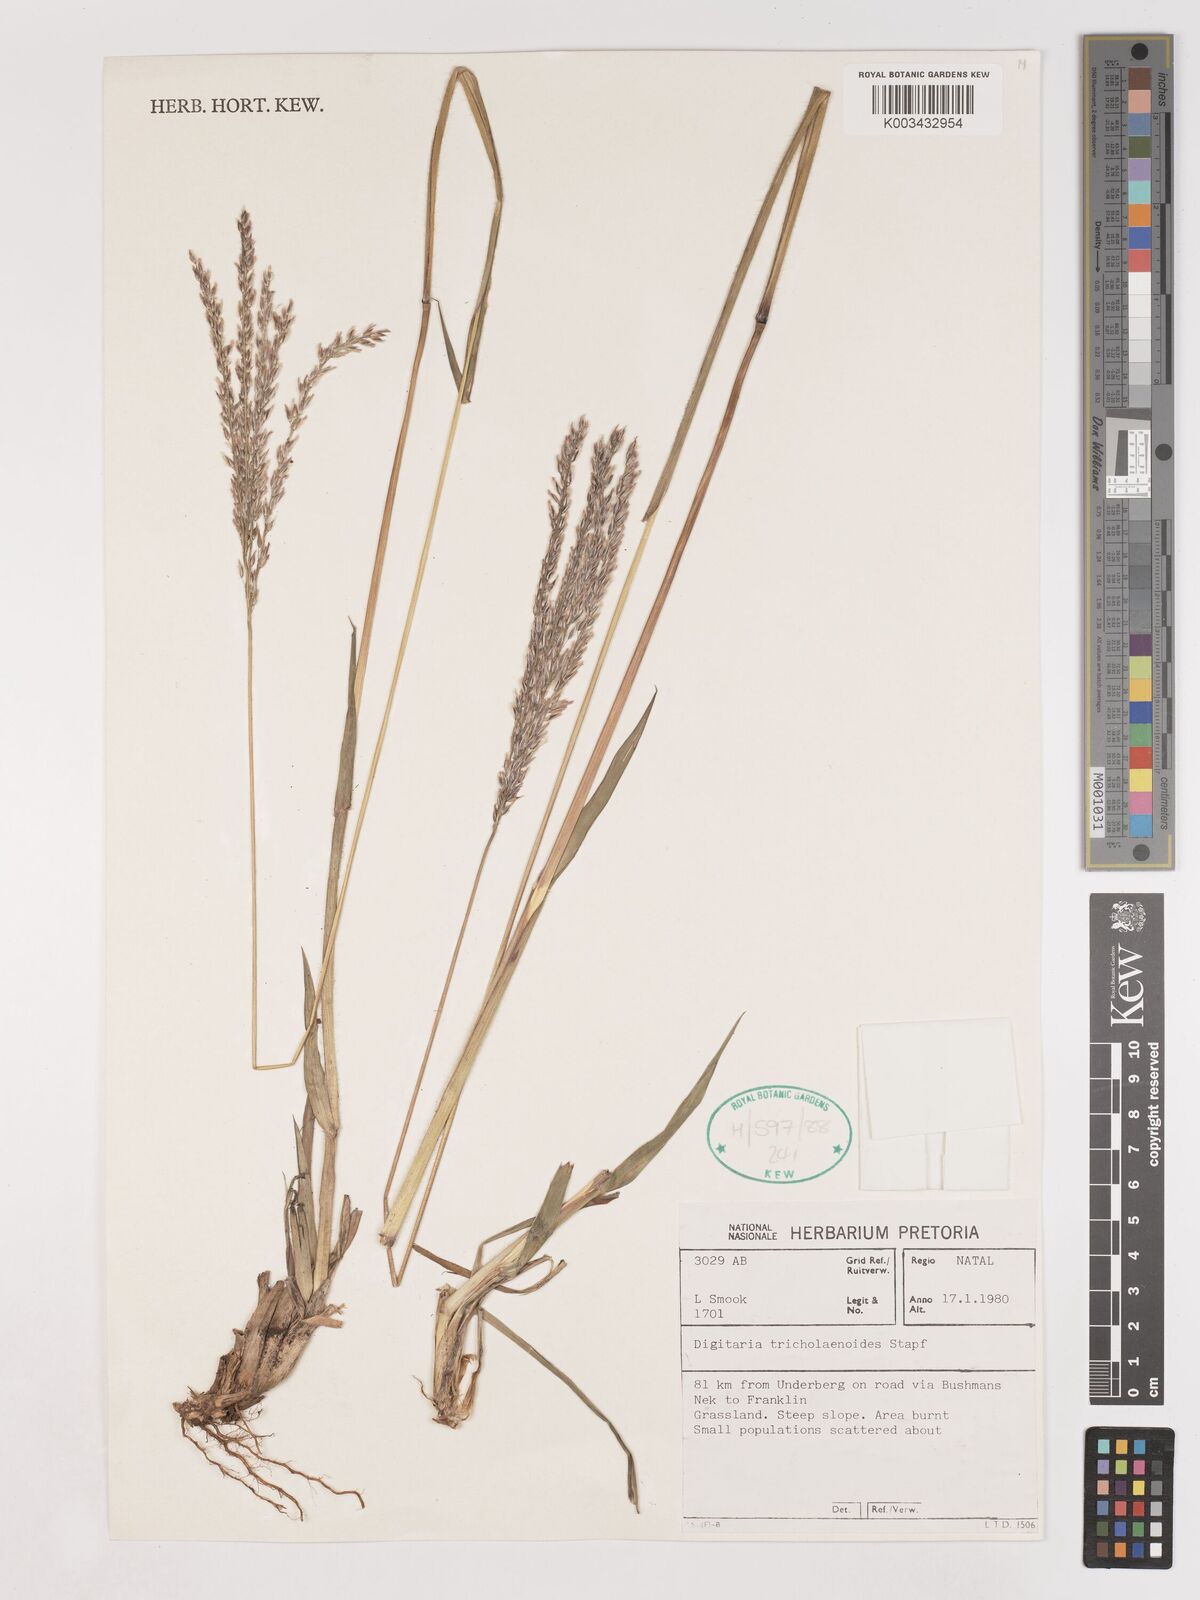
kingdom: Plantae
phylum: Tracheophyta
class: Liliopsida
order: Poales
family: Poaceae
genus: Digitaria
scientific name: Digitaria tricholaenoides
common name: Purple finger grass
